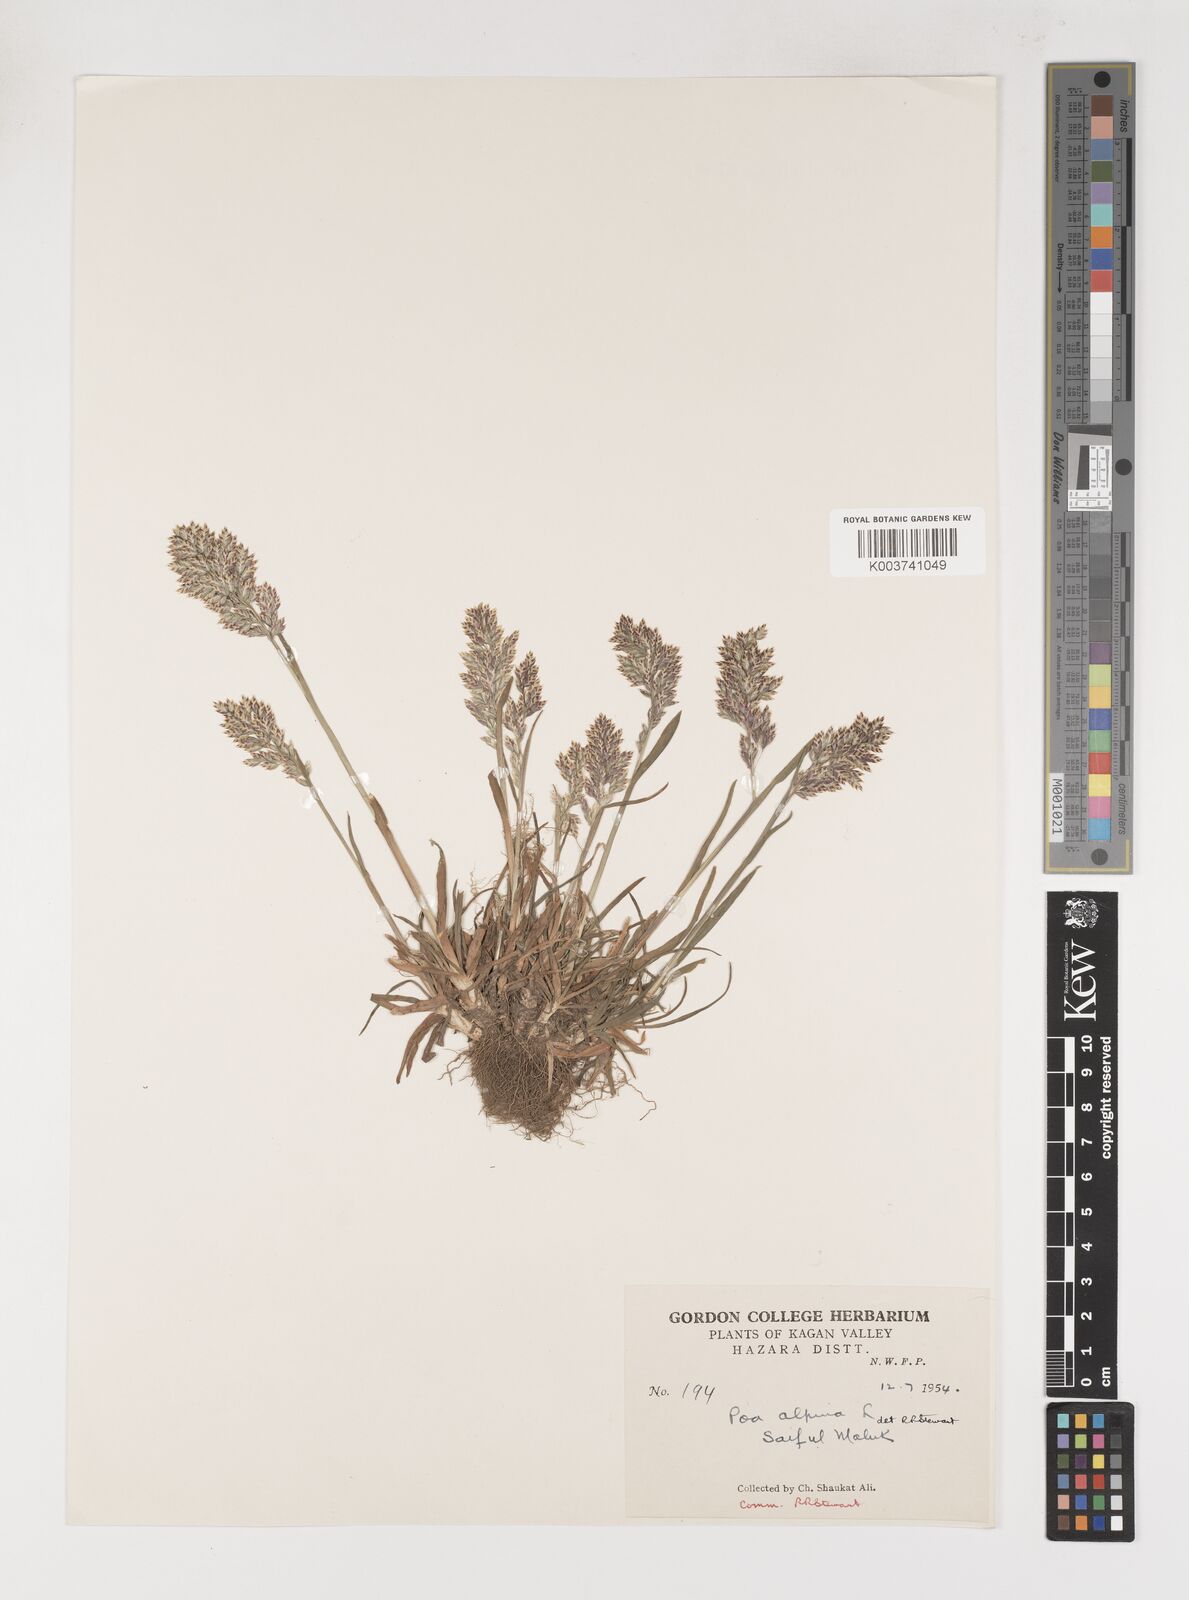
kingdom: Plantae
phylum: Tracheophyta
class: Liliopsida
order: Poales
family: Poaceae
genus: Poa
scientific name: Poa alpina
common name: Alpine bluegrass
